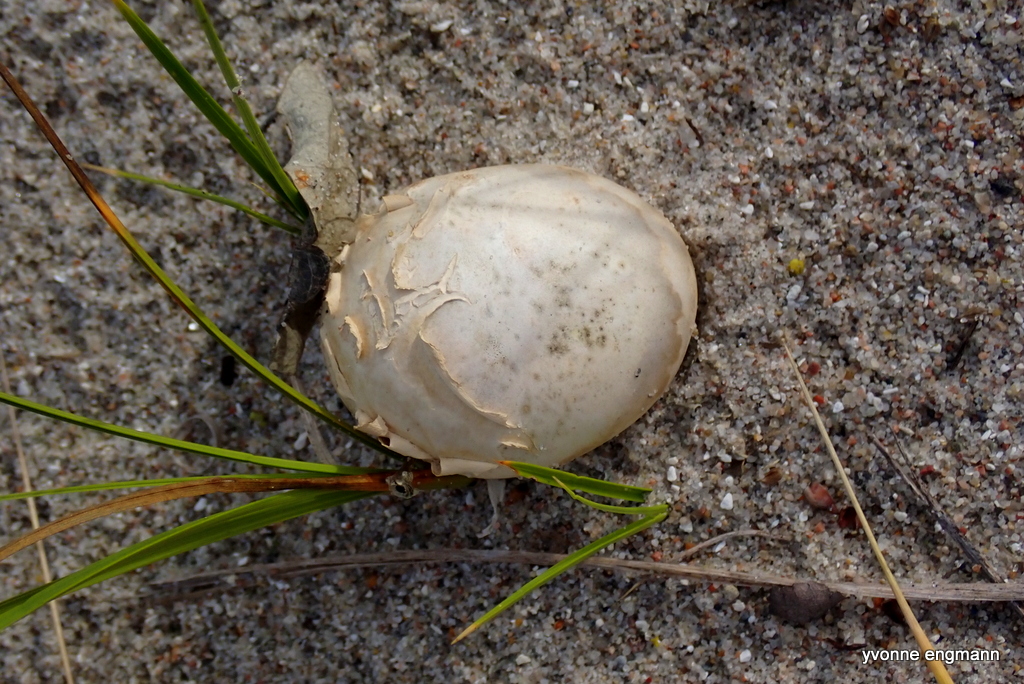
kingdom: Fungi
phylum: Basidiomycota
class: Agaricomycetes
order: Boletales
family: Sclerodermataceae
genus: Scleroderma
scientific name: Scleroderma septentrionale
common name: sand-bruskbold
